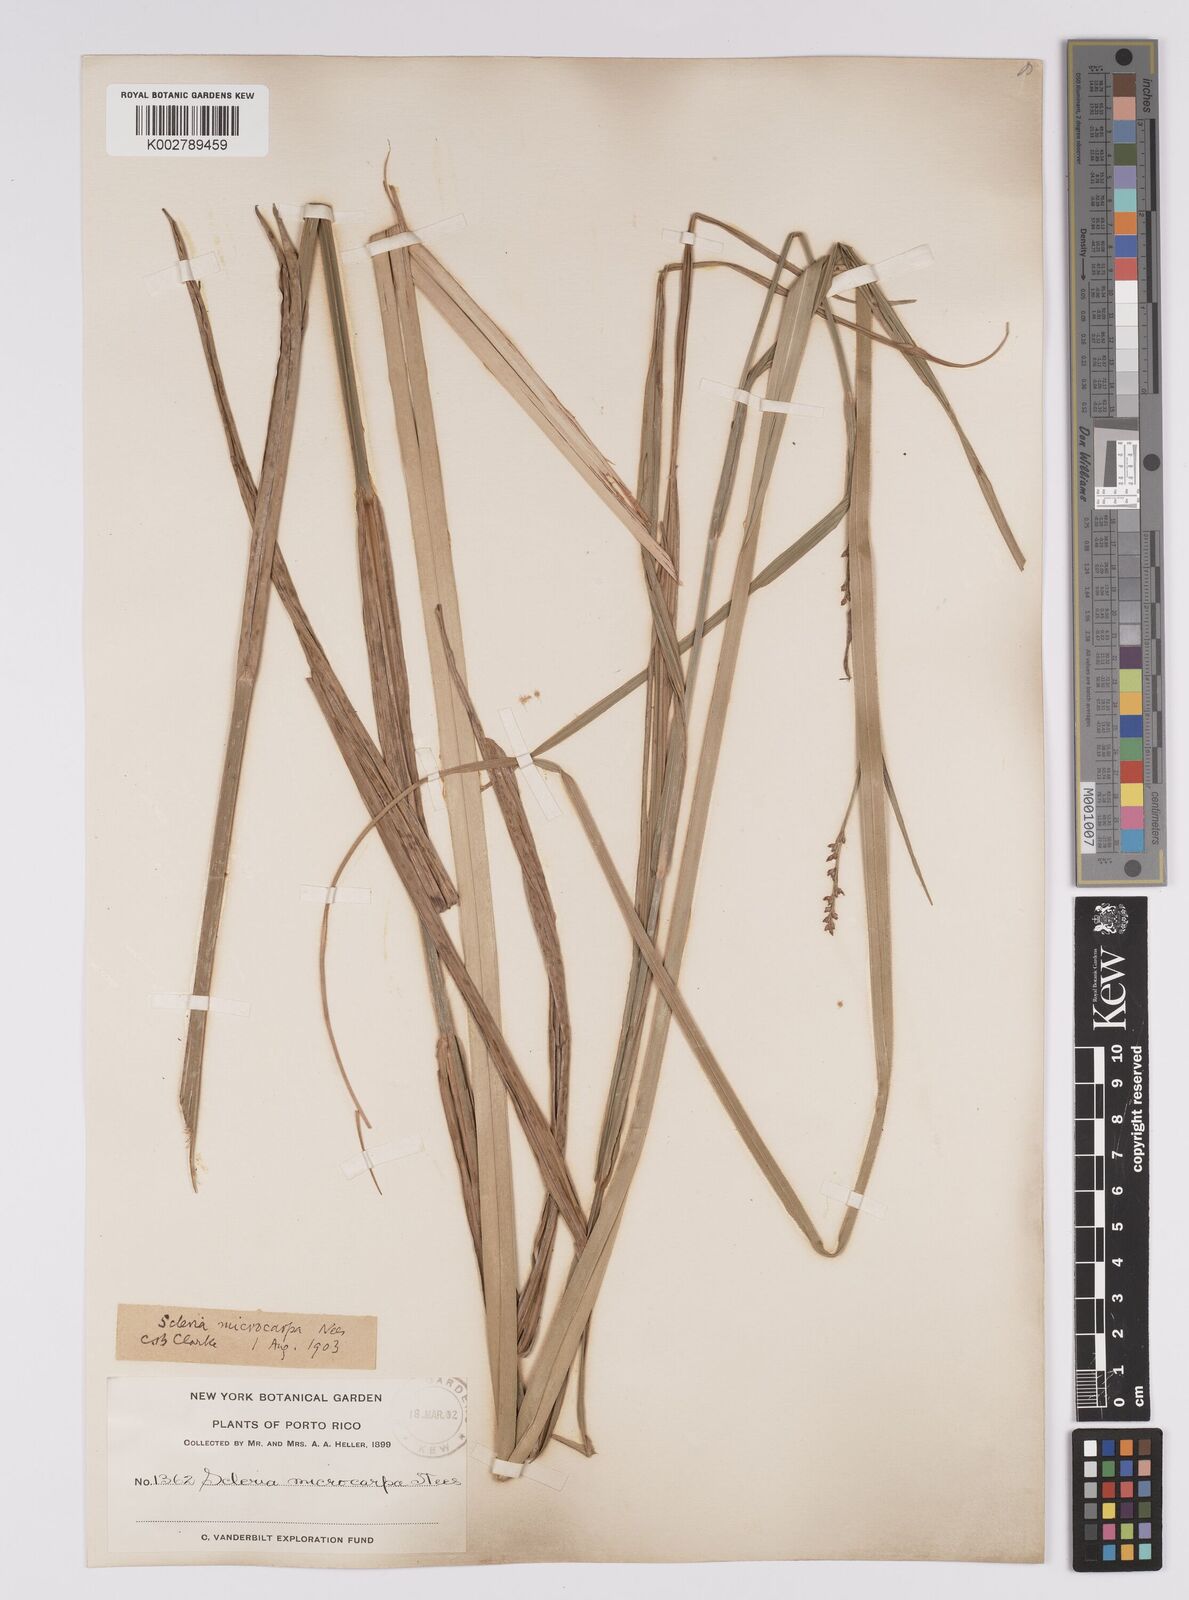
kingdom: Plantae
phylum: Tracheophyta
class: Liliopsida
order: Poales
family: Cyperaceae
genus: Scleria
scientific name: Scleria microcarpa
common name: Tropical nutrush
